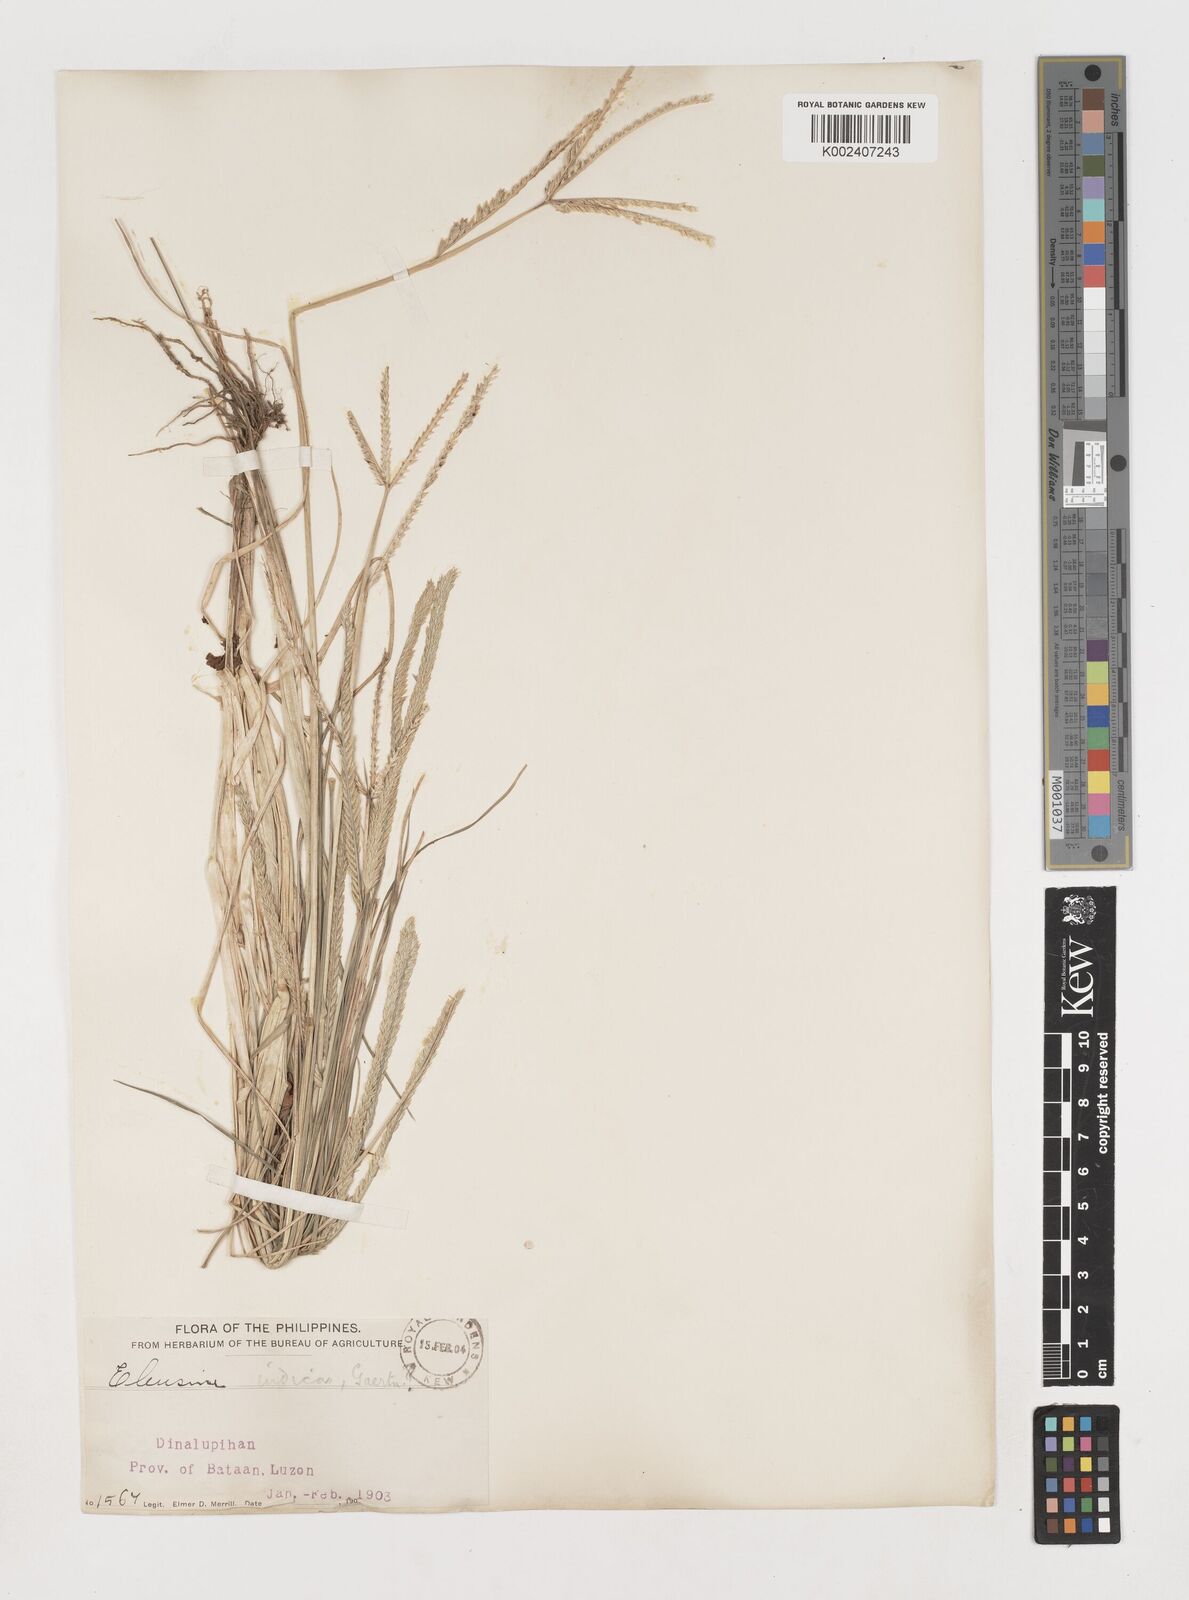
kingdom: Plantae
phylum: Tracheophyta
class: Liliopsida
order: Poales
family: Poaceae
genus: Eleusine
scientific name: Eleusine indica
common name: Yard-grass
